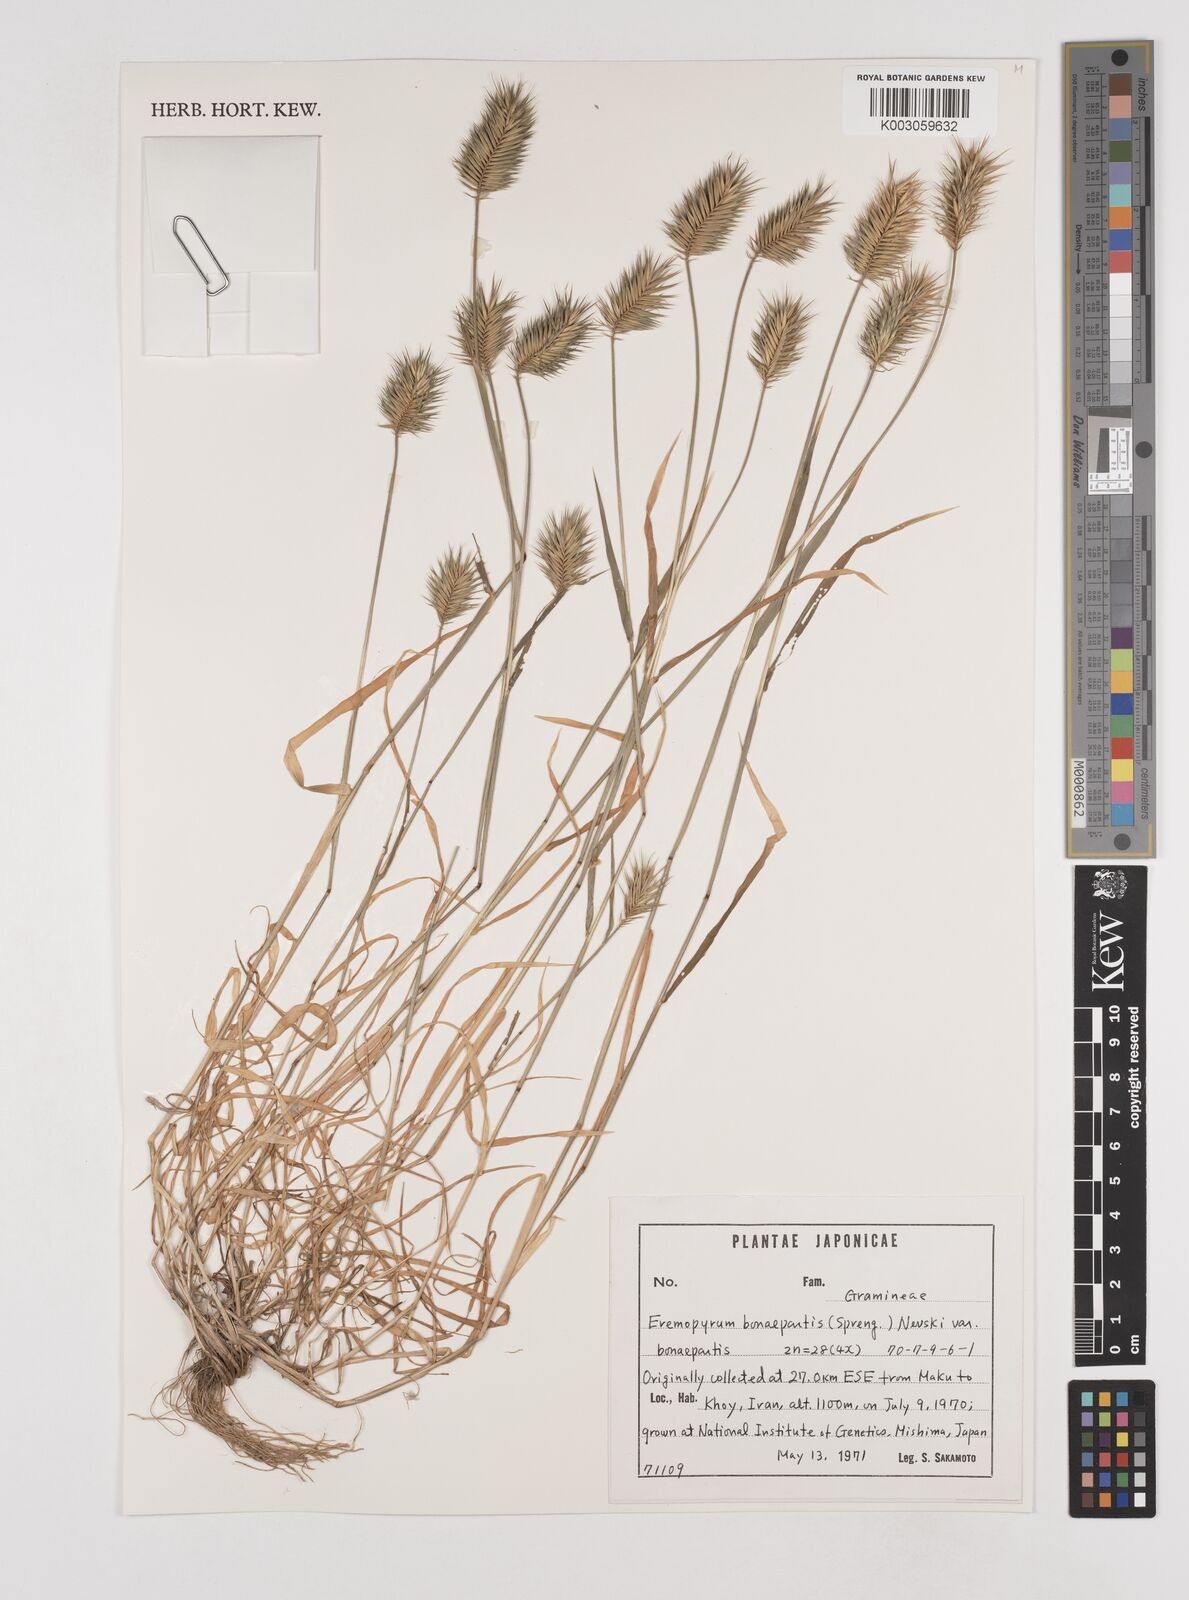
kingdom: Plantae
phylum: Tracheophyta
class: Liliopsida
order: Poales
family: Poaceae
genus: Eremopyrum
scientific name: Eremopyrum bonaepartis
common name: Tapertip false wheatgrass
